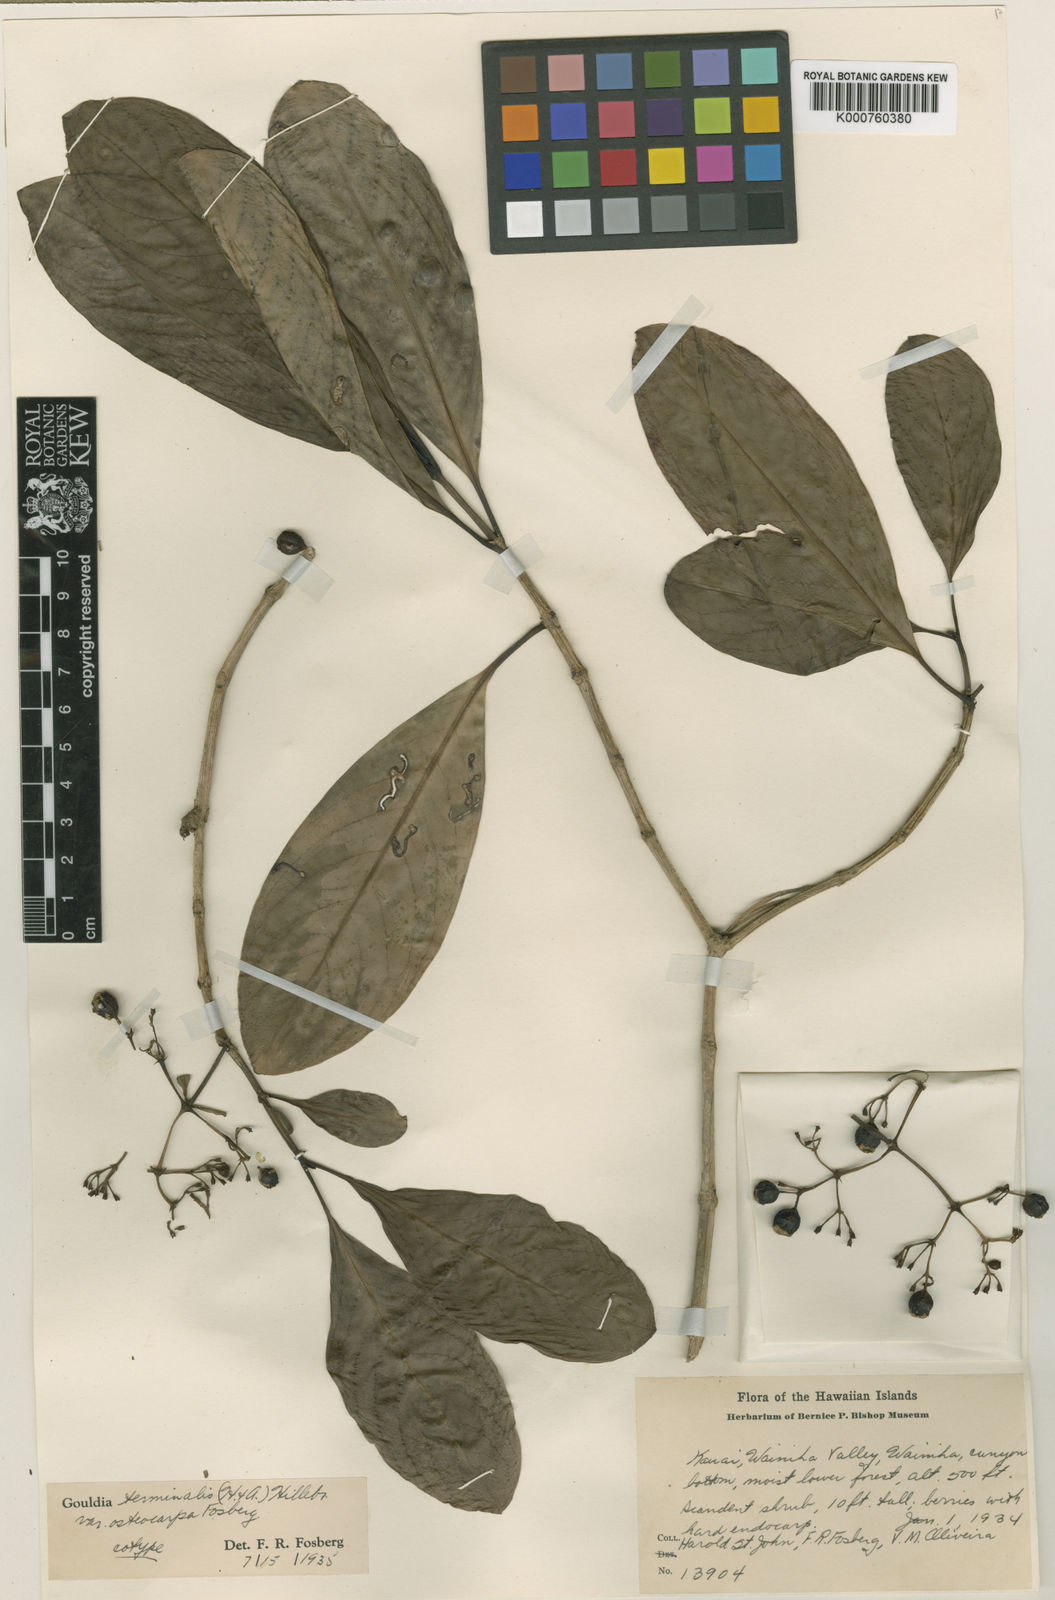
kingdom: Plantae
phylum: Tracheophyta
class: Magnoliopsida
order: Gentianales
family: Rubiaceae
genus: Kadua
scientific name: Kadua affinis
